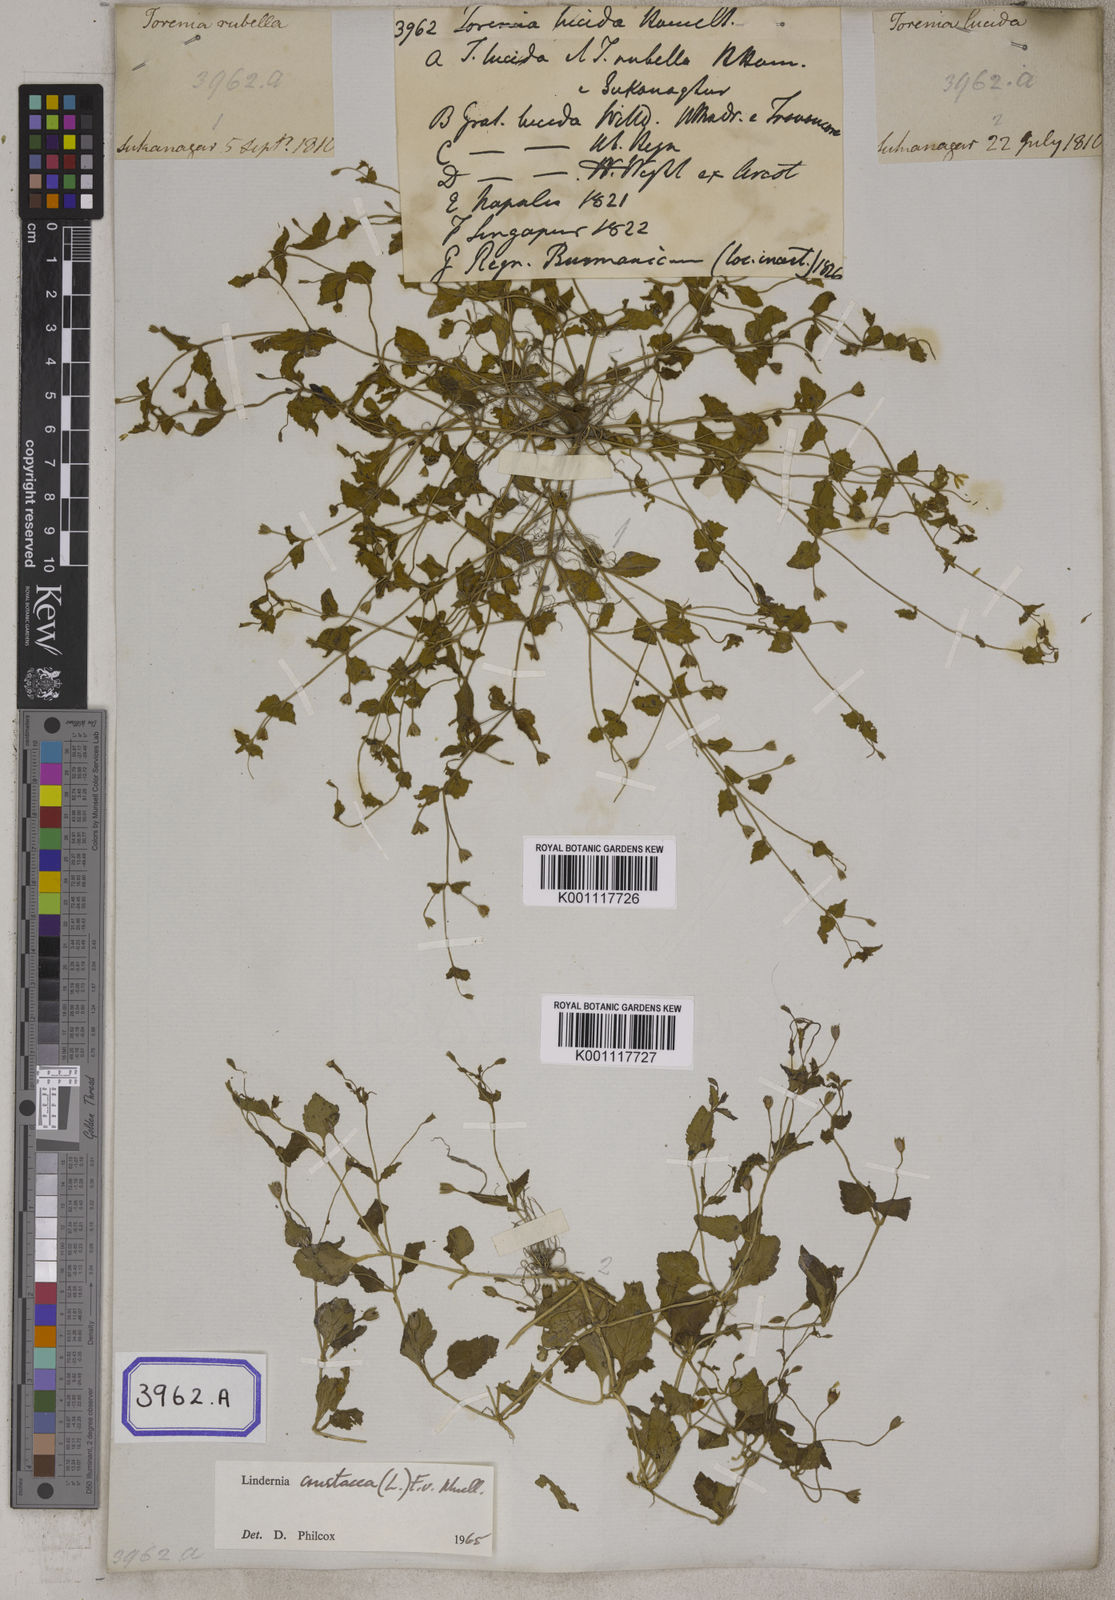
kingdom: Plantae
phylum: Tracheophyta
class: Magnoliopsida
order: Lamiales
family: Linderniaceae
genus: Torenia
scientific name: Torenia crustacea
